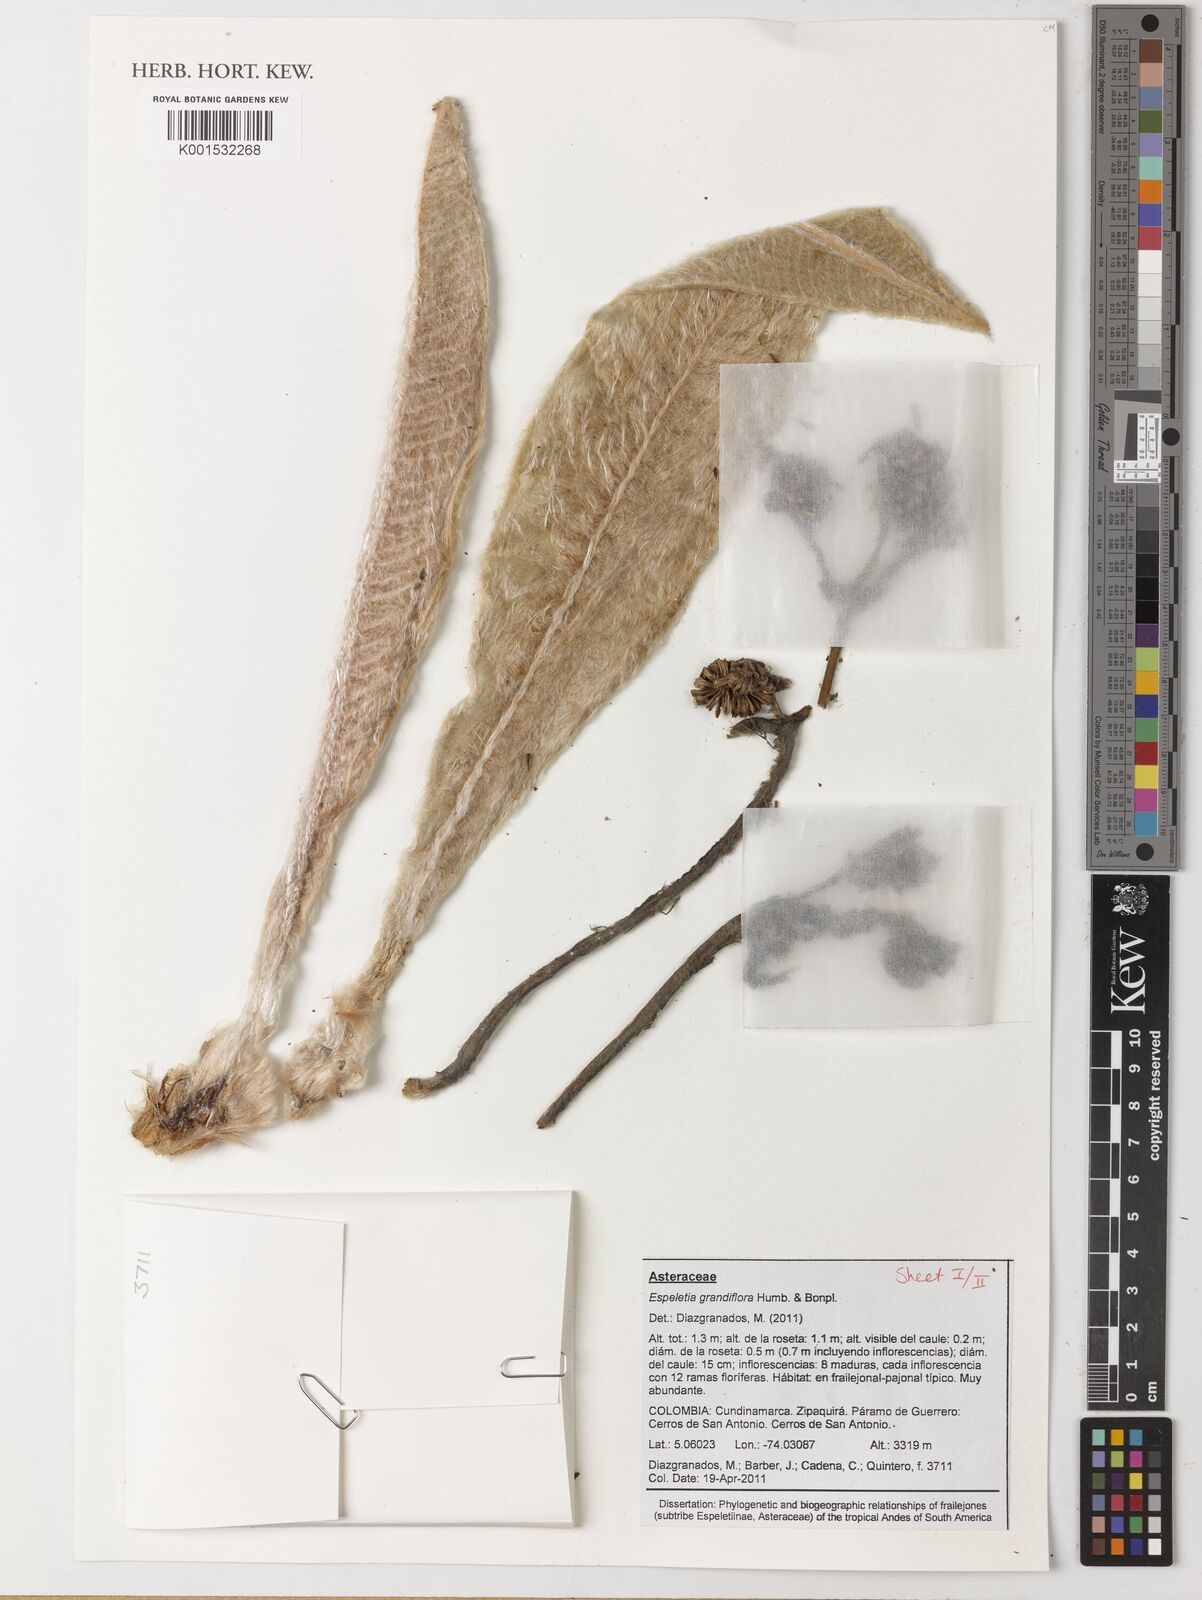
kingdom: Plantae
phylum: Tracheophyta
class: Magnoliopsida
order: Asterales
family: Asteraceae
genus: Espeletia
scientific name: Espeletia grandiflora
